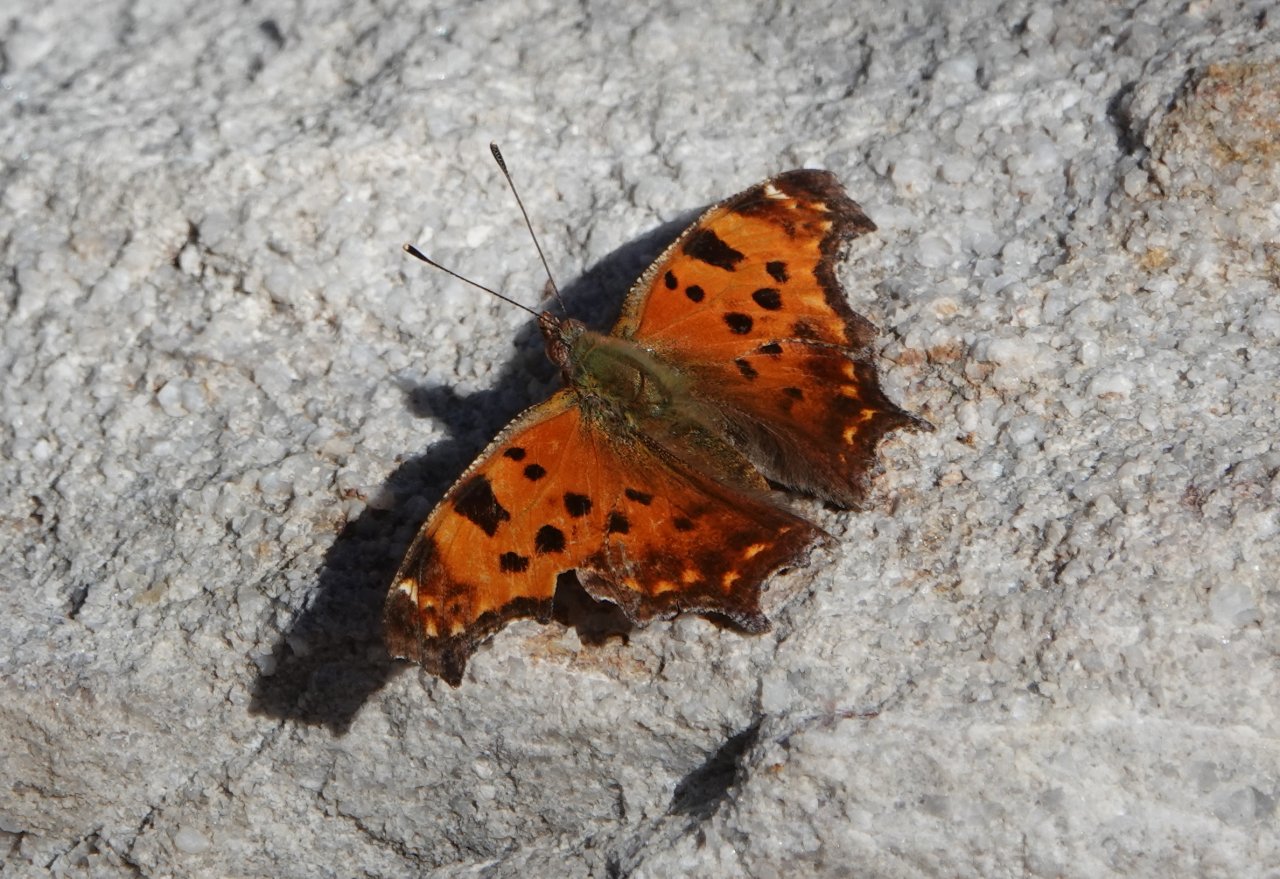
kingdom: Animalia
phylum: Arthropoda
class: Insecta
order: Lepidoptera
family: Nymphalidae
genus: Polygonia
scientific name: Polygonia comma
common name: Eastern Comma
